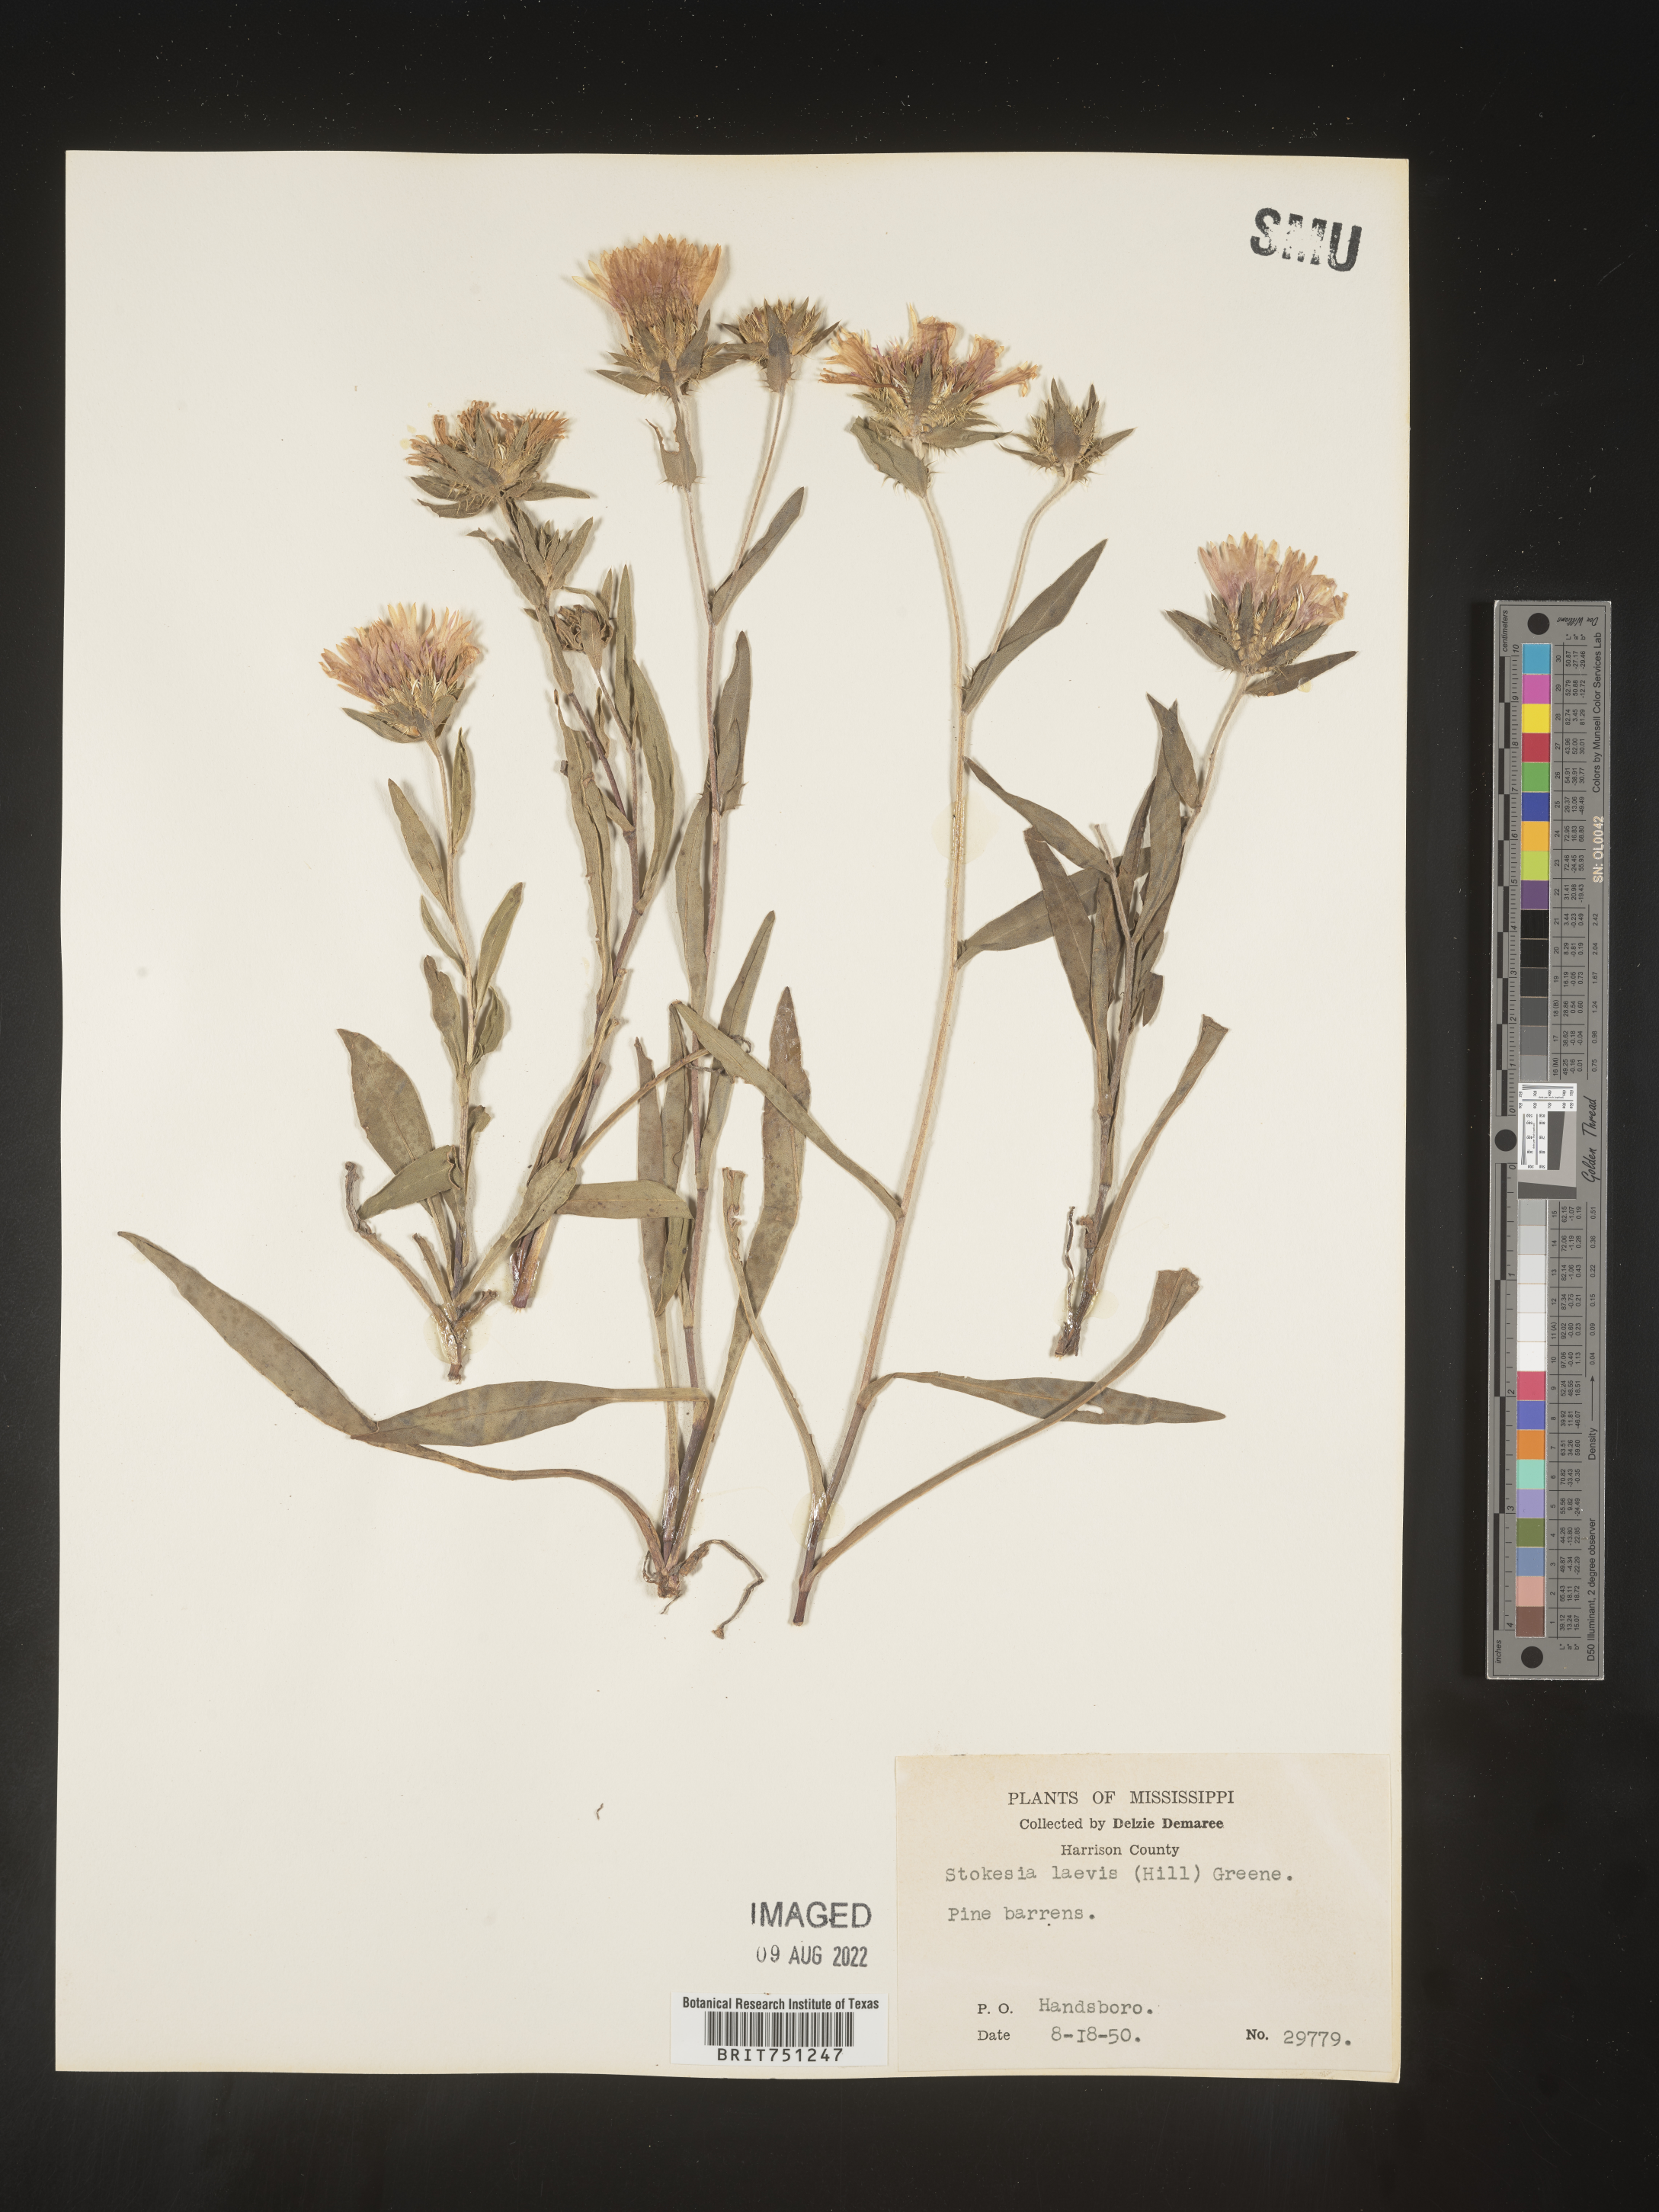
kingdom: Plantae
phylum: Tracheophyta
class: Magnoliopsida
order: Asterales
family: Asteraceae
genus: Stokesia
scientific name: Stokesia
